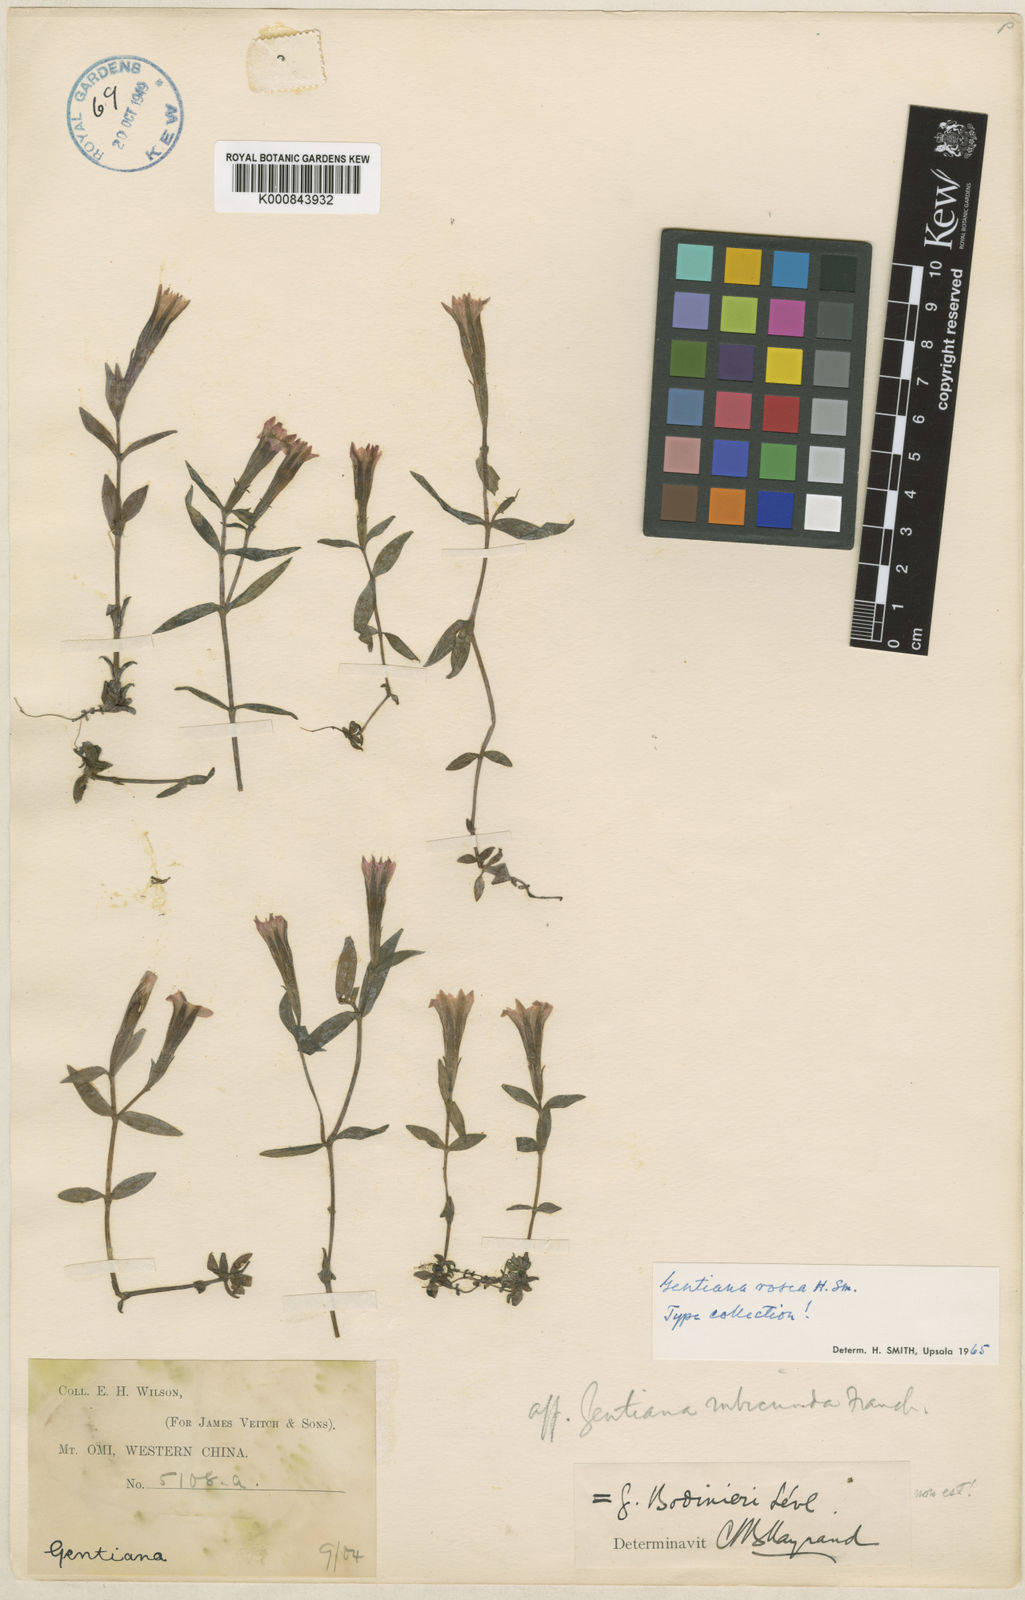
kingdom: Plantae
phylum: Tracheophyta
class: Magnoliopsida
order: Gentianales
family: Gentianaceae
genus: Gentiana
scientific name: Gentiana
